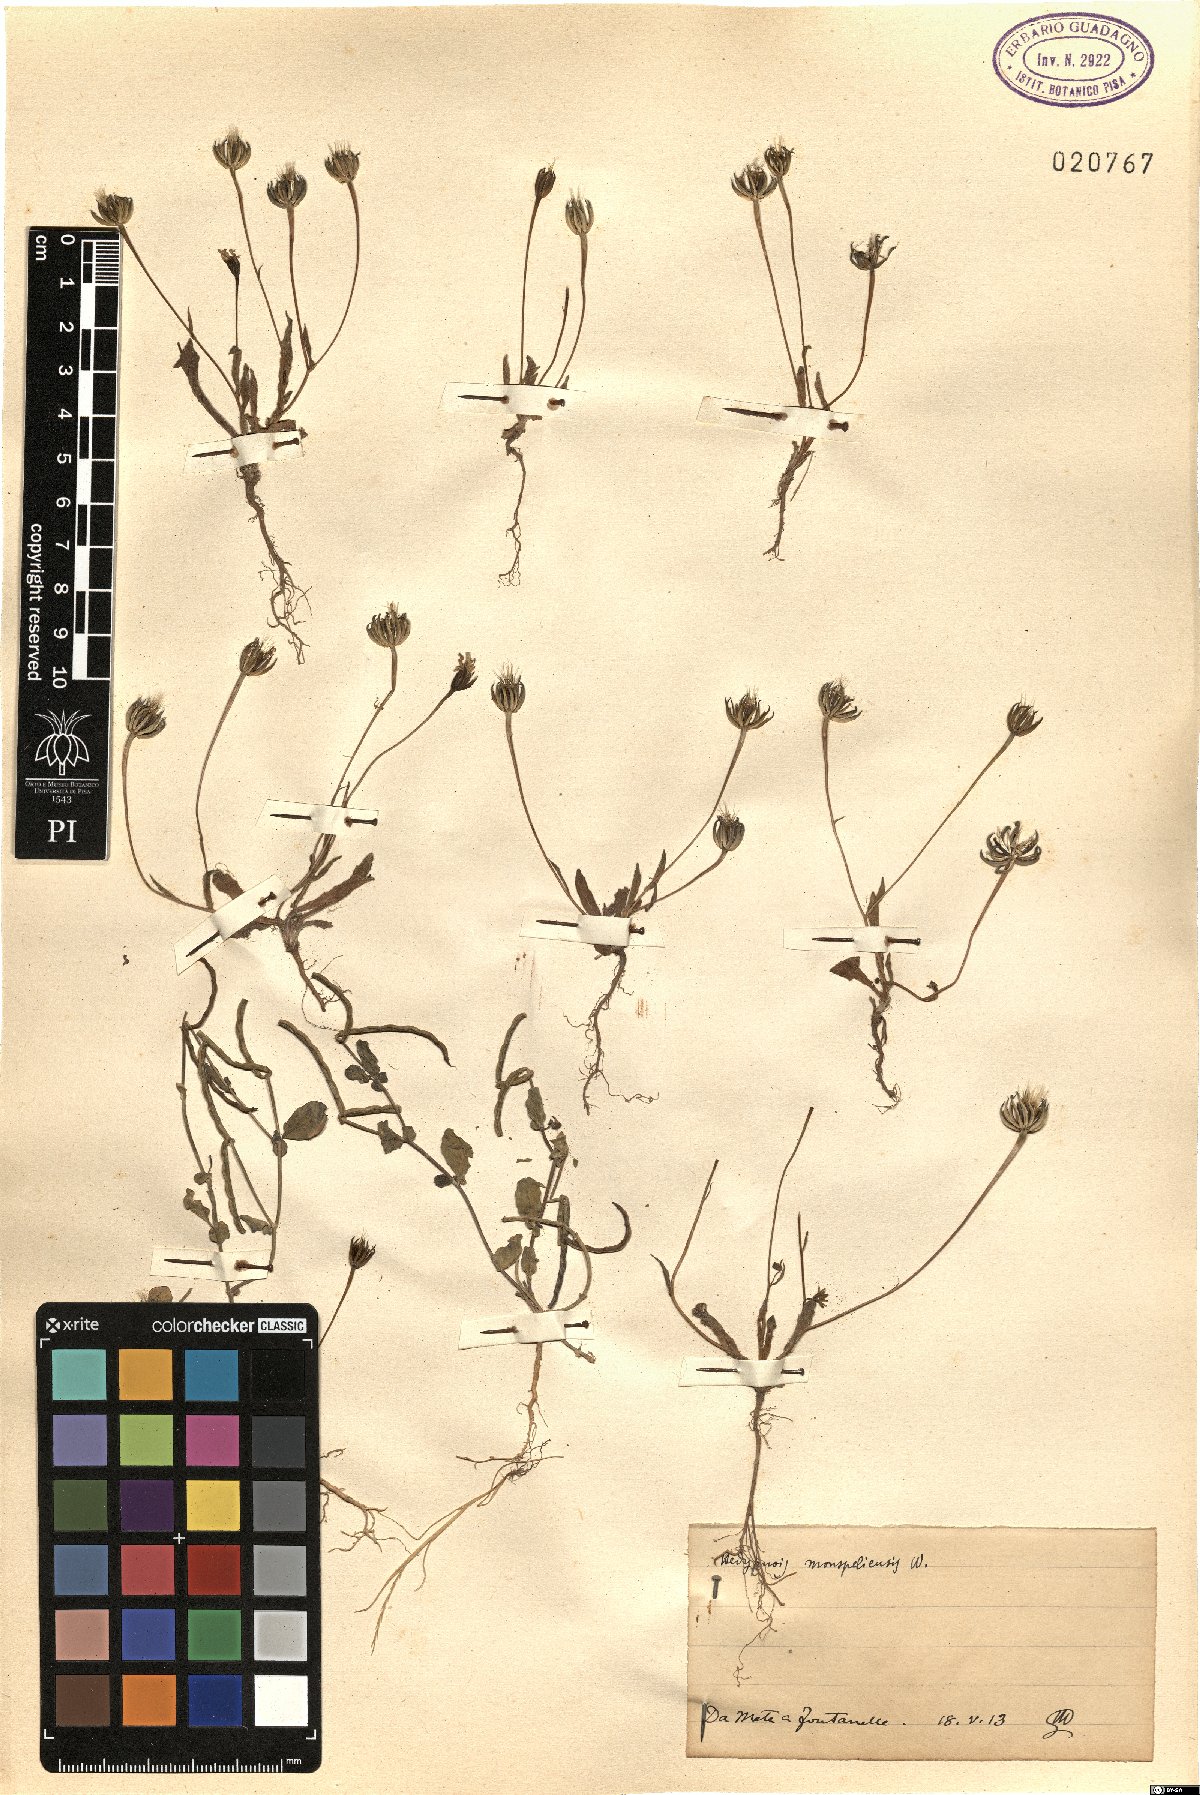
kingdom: Plantae
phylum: Tracheophyta
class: Magnoliopsida
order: Asterales
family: Asteraceae
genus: Hedypnois
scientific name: Hedypnois rhagadioloides
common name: Cretan weed
